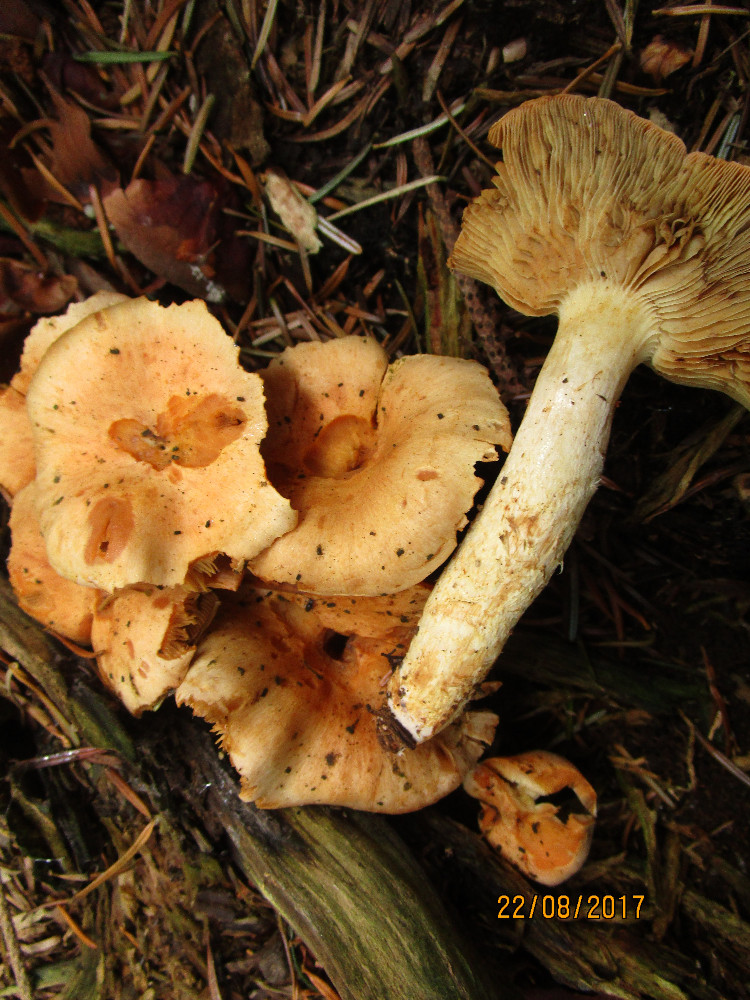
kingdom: Fungi
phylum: Basidiomycota
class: Agaricomycetes
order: Agaricales
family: Strophariaceae
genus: Pyrrhulomyces
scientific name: Pyrrhulomyces astragalinus
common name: safran-skælhat
